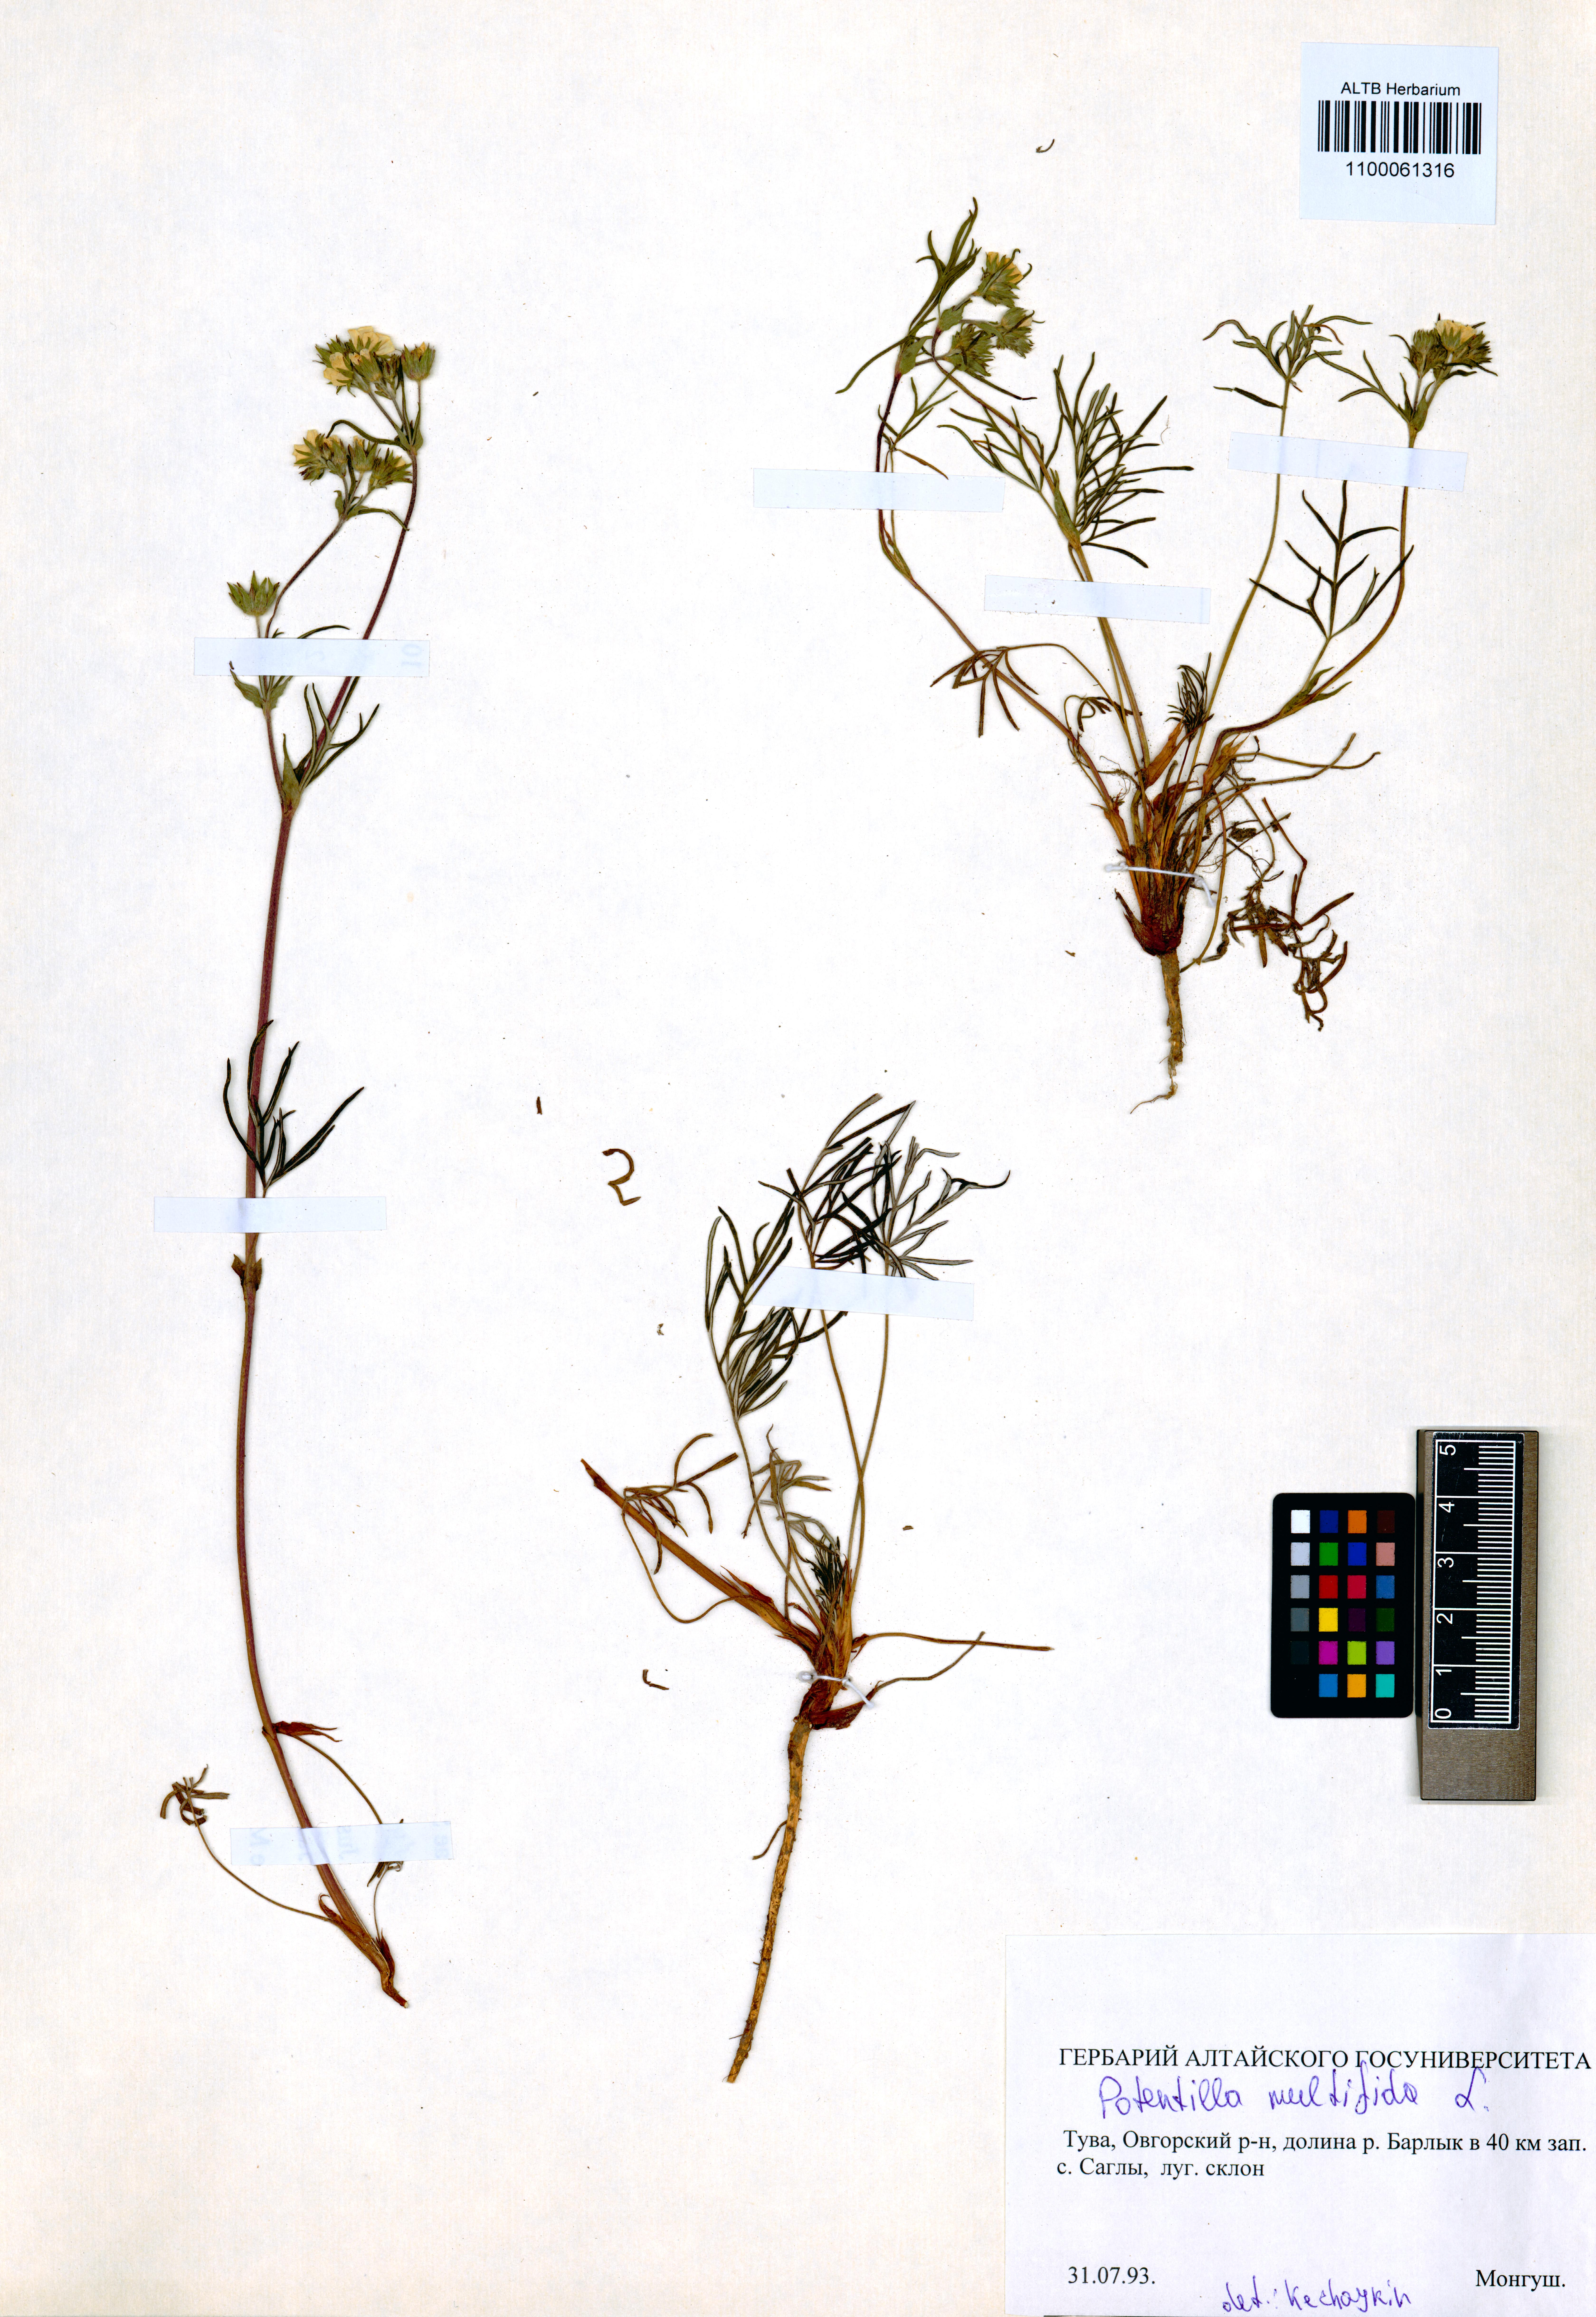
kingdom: Plantae
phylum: Tracheophyta
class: Magnoliopsida
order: Rosales
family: Rosaceae
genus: Potentilla
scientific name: Potentilla multifida
